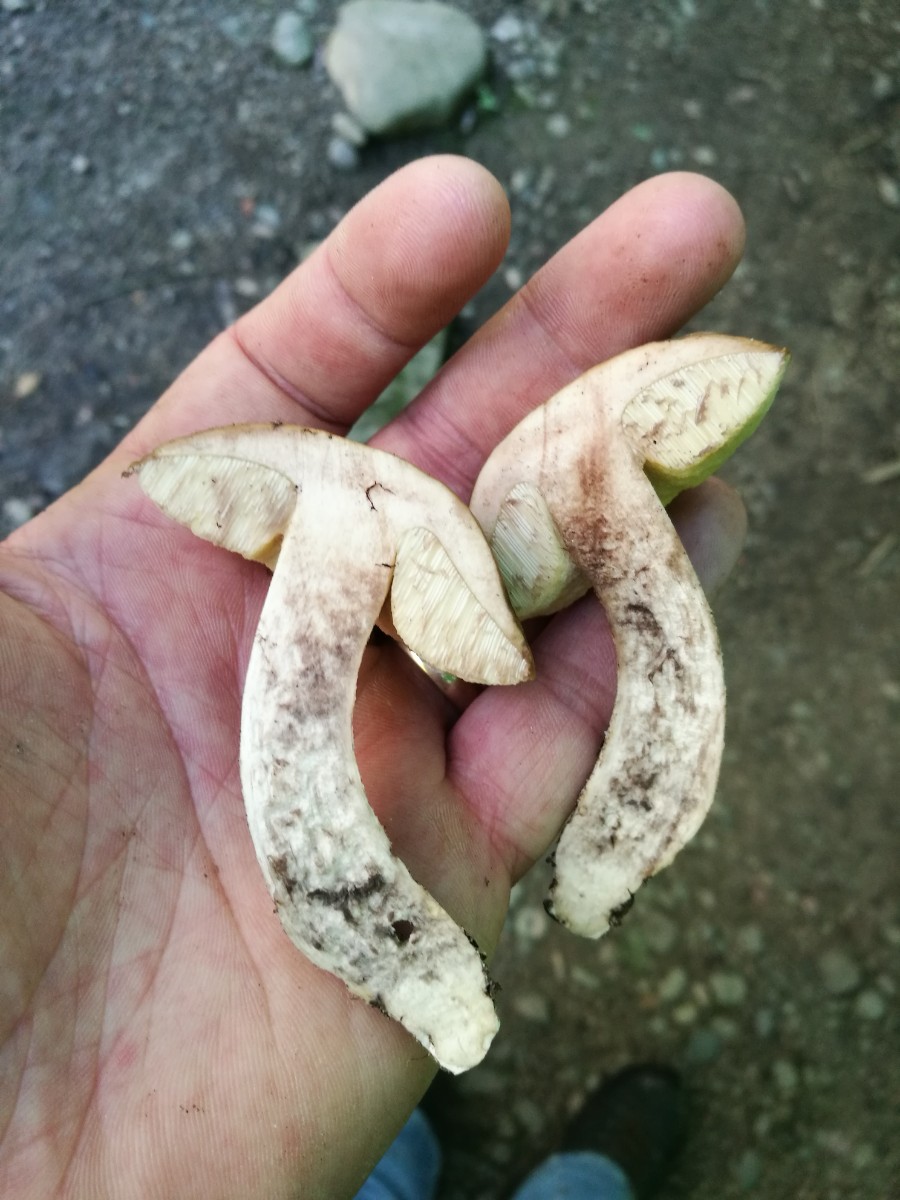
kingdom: Fungi
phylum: Basidiomycota
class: Agaricomycetes
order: Boletales
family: Boletaceae
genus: Leccinellum
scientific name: Leccinellum pseudoscabrum
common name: avnbøg-skælrørhat
